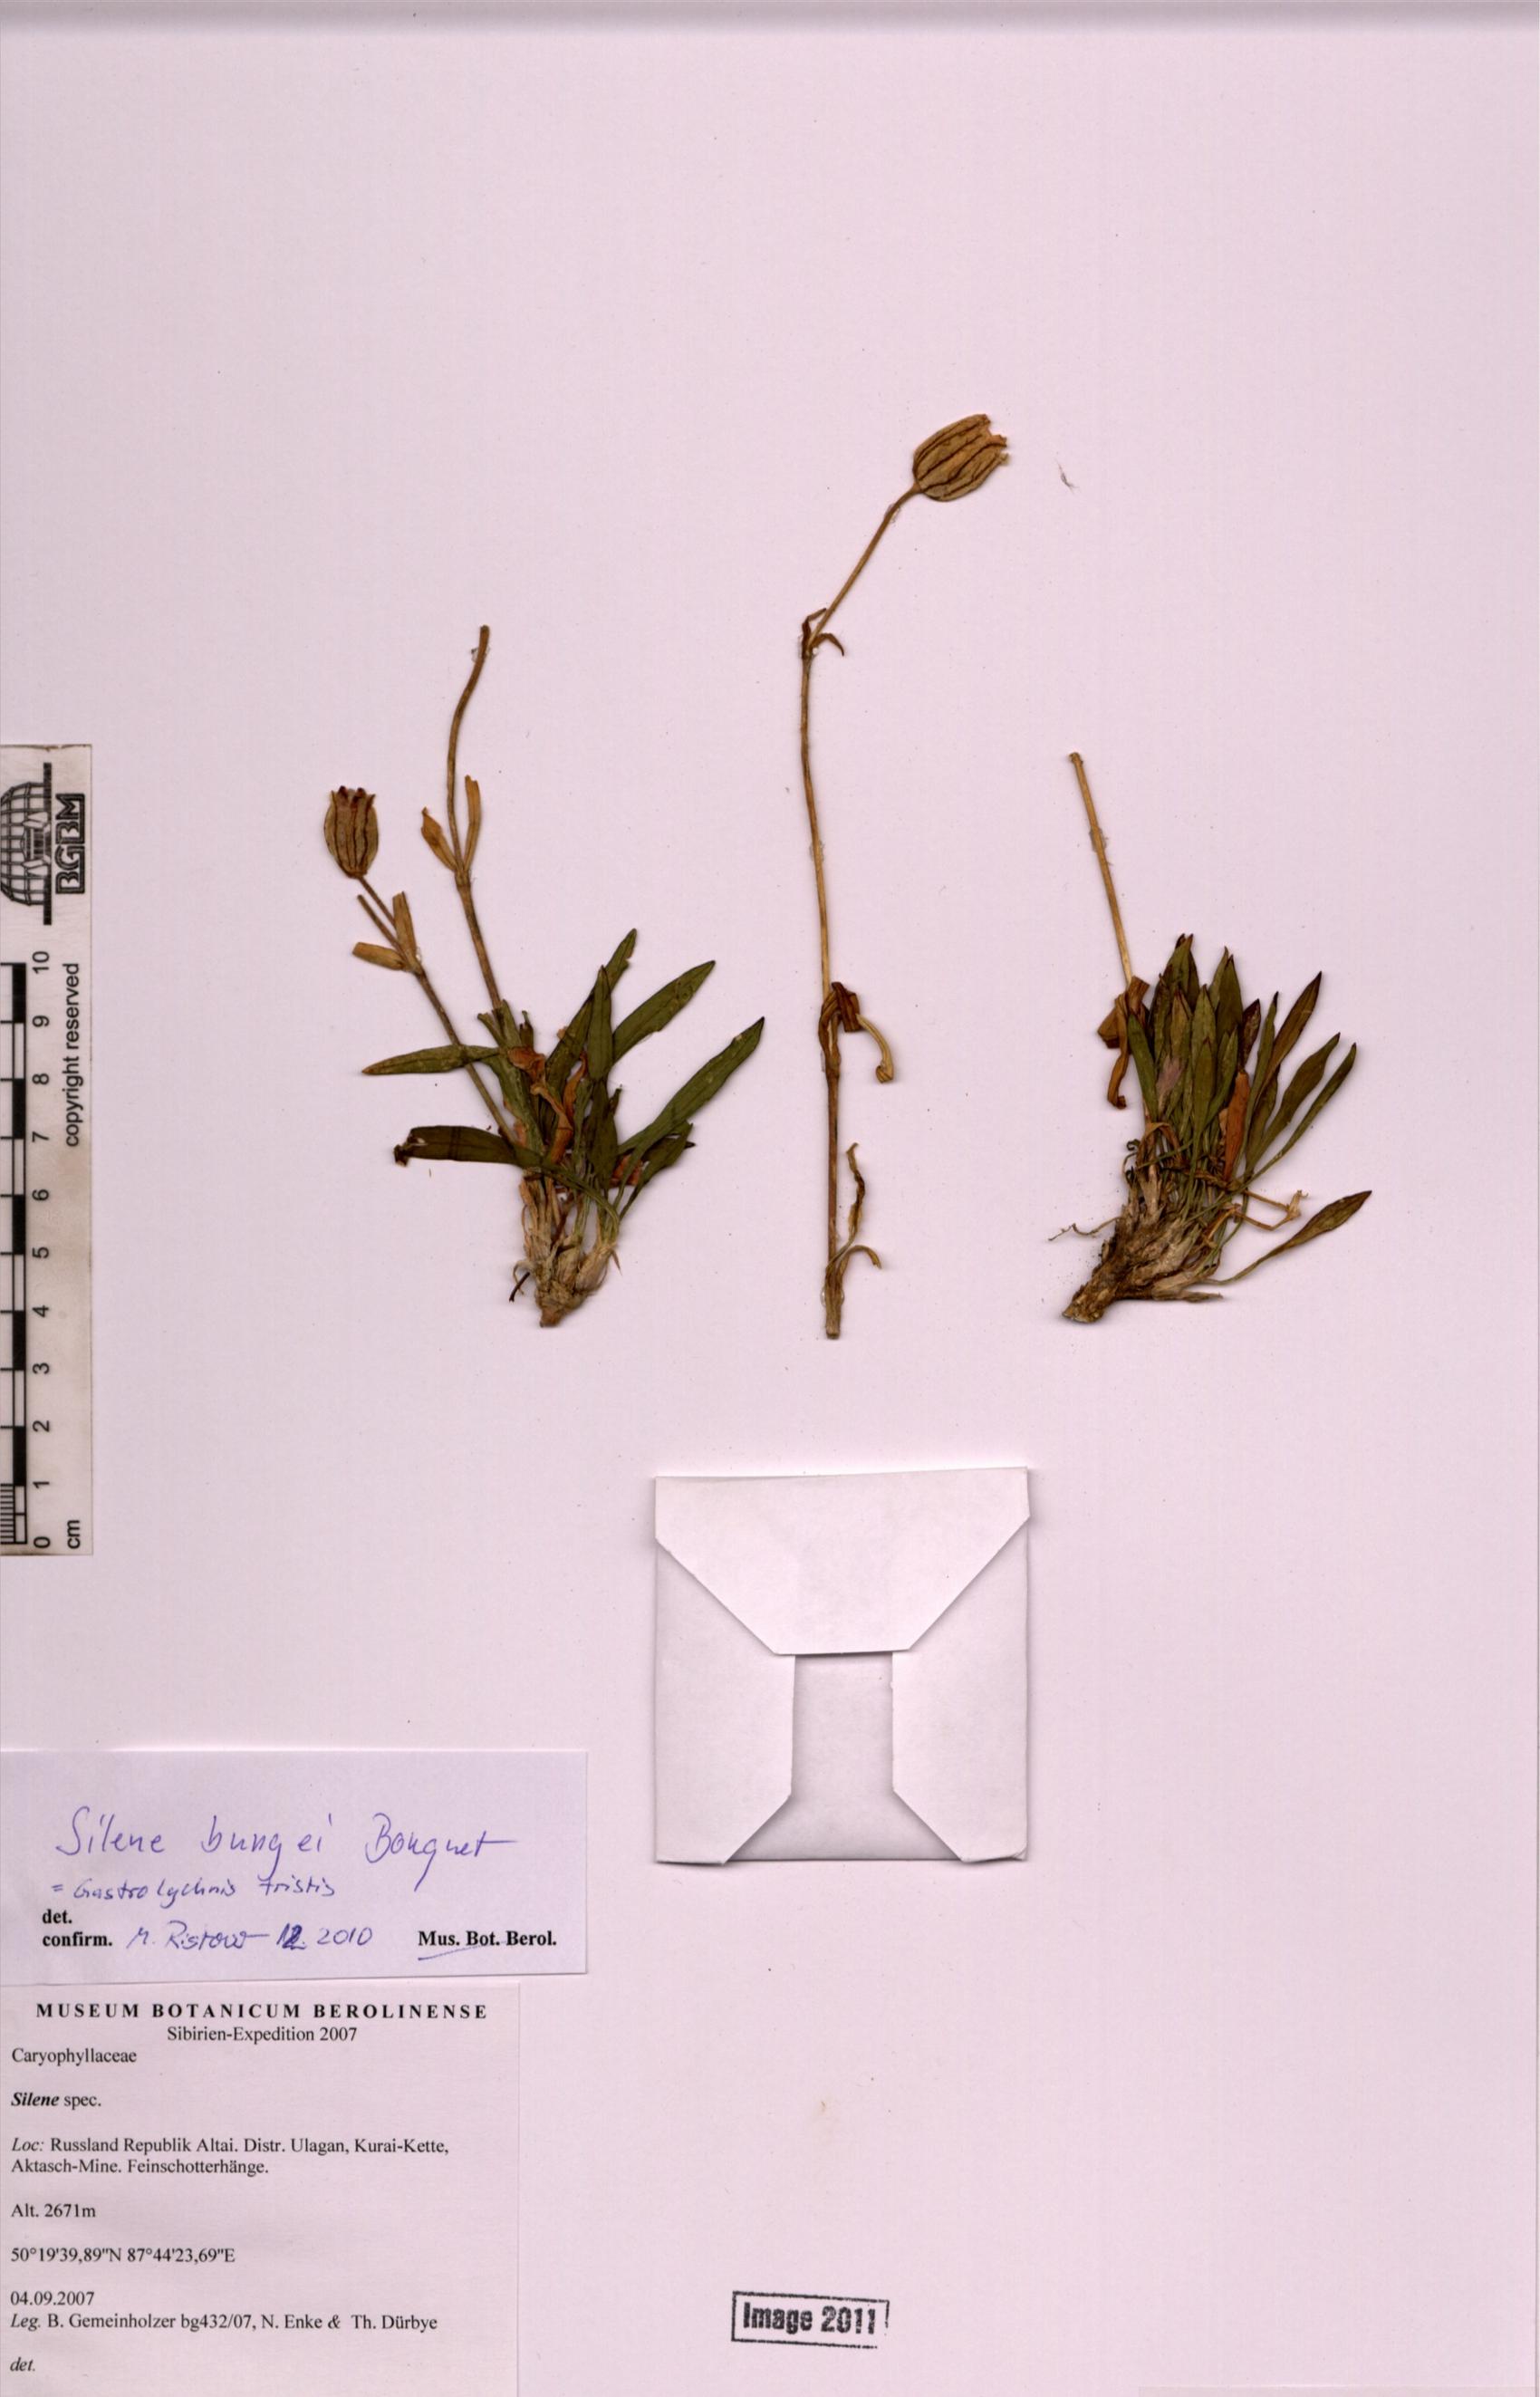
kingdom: Plantae
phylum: Tracheophyta
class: Magnoliopsida
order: Caryophyllales
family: Caryophyllaceae
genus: Silene
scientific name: Silene bungei
